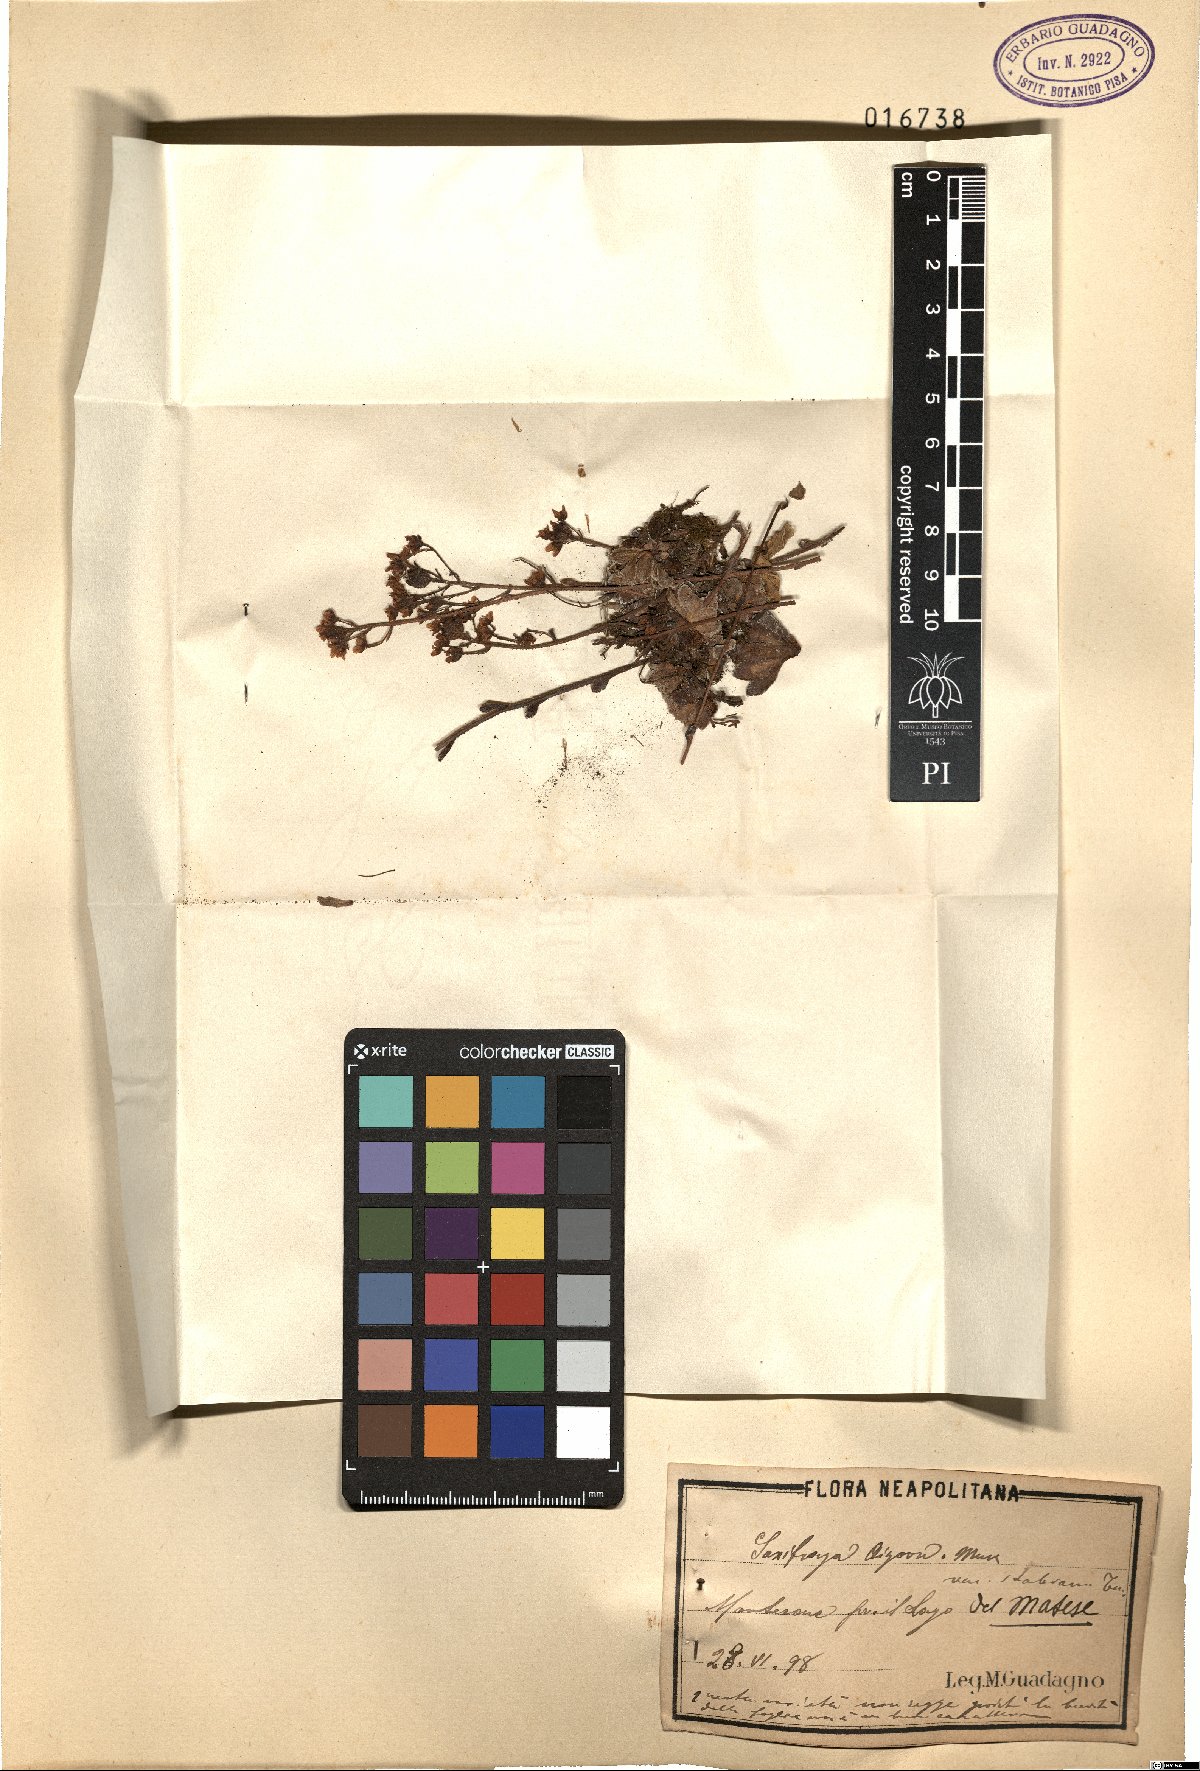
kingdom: Plantae
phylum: Tracheophyta
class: Magnoliopsida
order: Saxifragales
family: Saxifragaceae
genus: Saxifraga
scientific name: Saxifraga paniculata
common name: Livelong saxifrage
